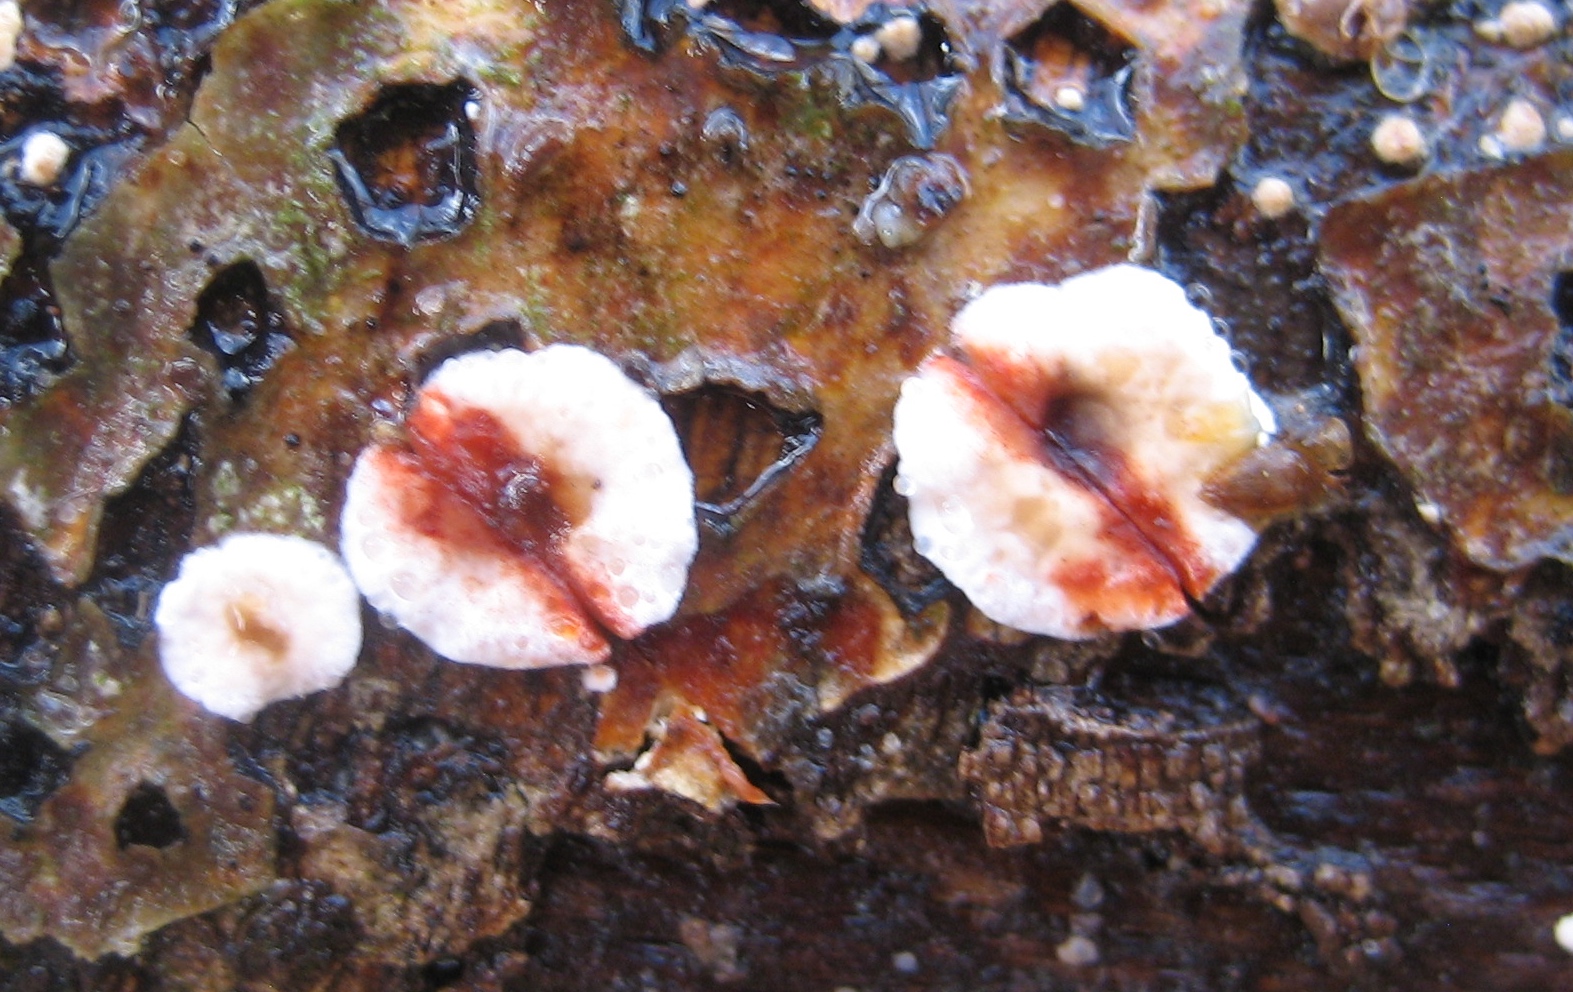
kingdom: Fungi
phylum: Basidiomycota
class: Agaricomycetes
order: Russulales
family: Stereaceae
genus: Stereum
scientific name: Stereum sanguinolentum
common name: blødende lædersvamp
